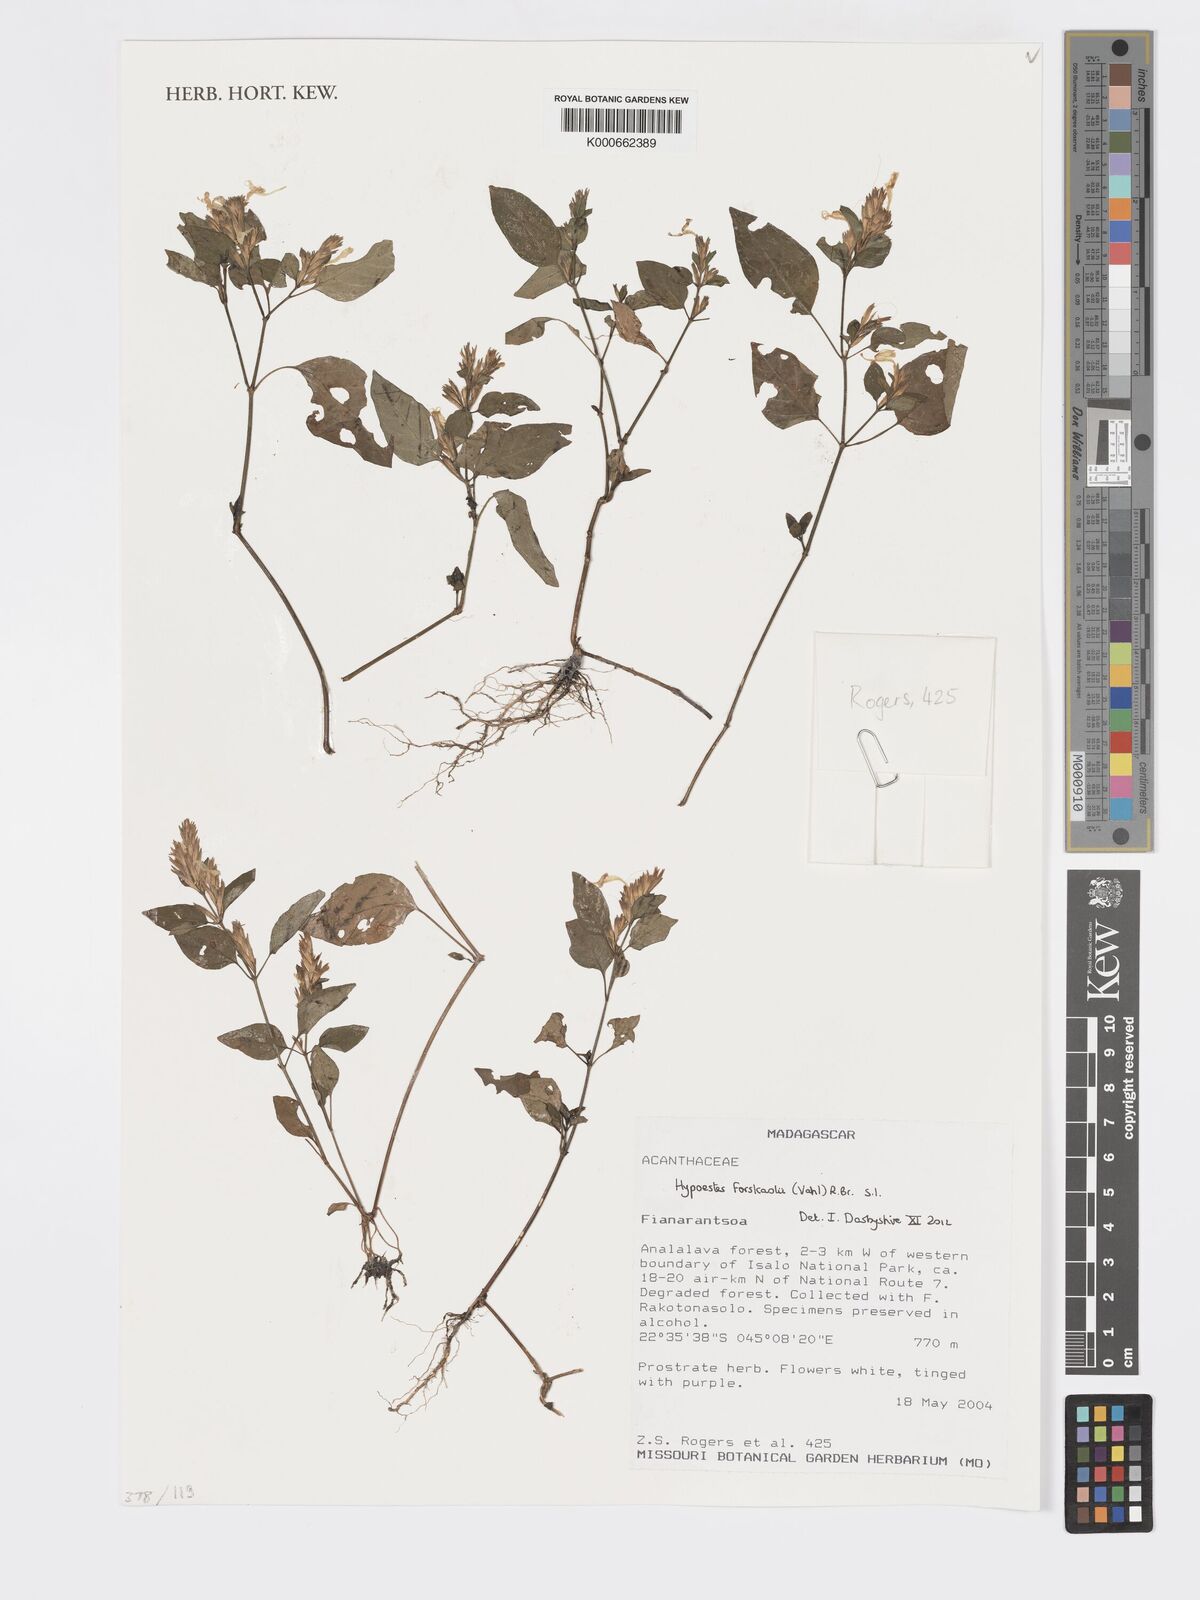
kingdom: Plantae
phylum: Tracheophyta
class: Magnoliopsida
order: Lamiales
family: Acanthaceae
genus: Hypoestes
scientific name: Hypoestes forskaolii
